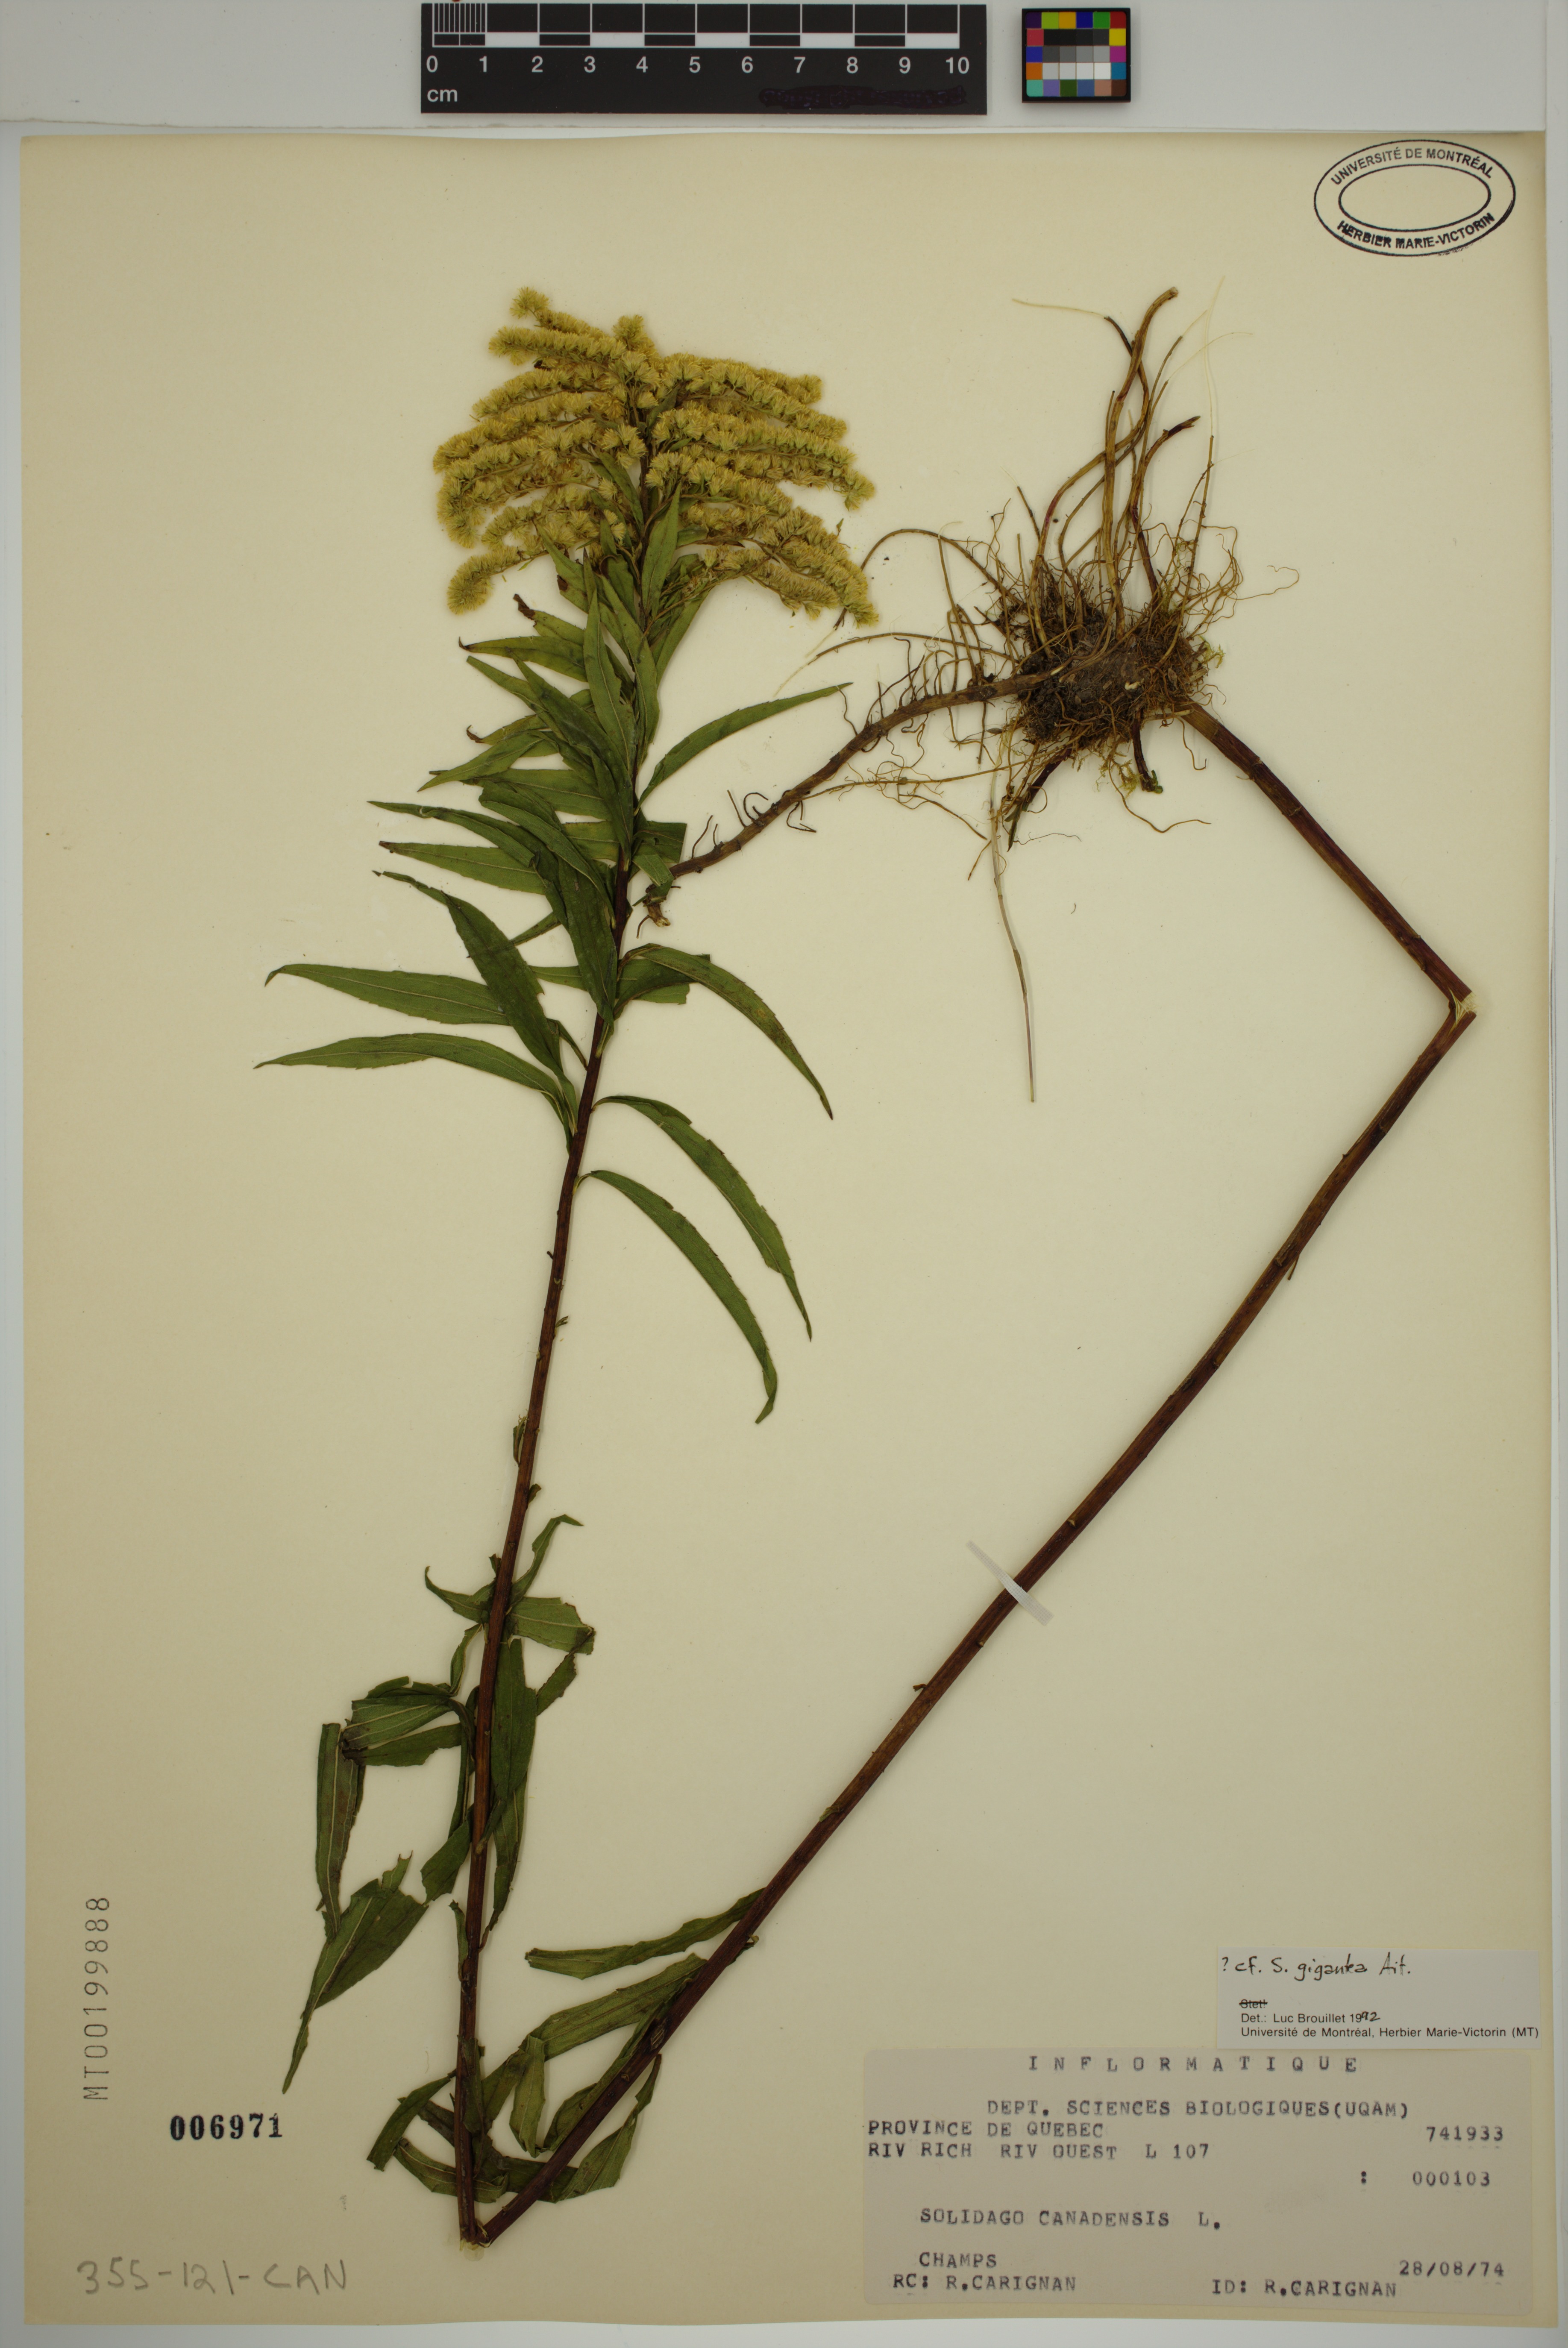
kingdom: Plantae
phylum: Tracheophyta
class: Magnoliopsida
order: Asterales
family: Asteraceae
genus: Solidago
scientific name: Solidago gigantea
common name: Giant goldenrod
